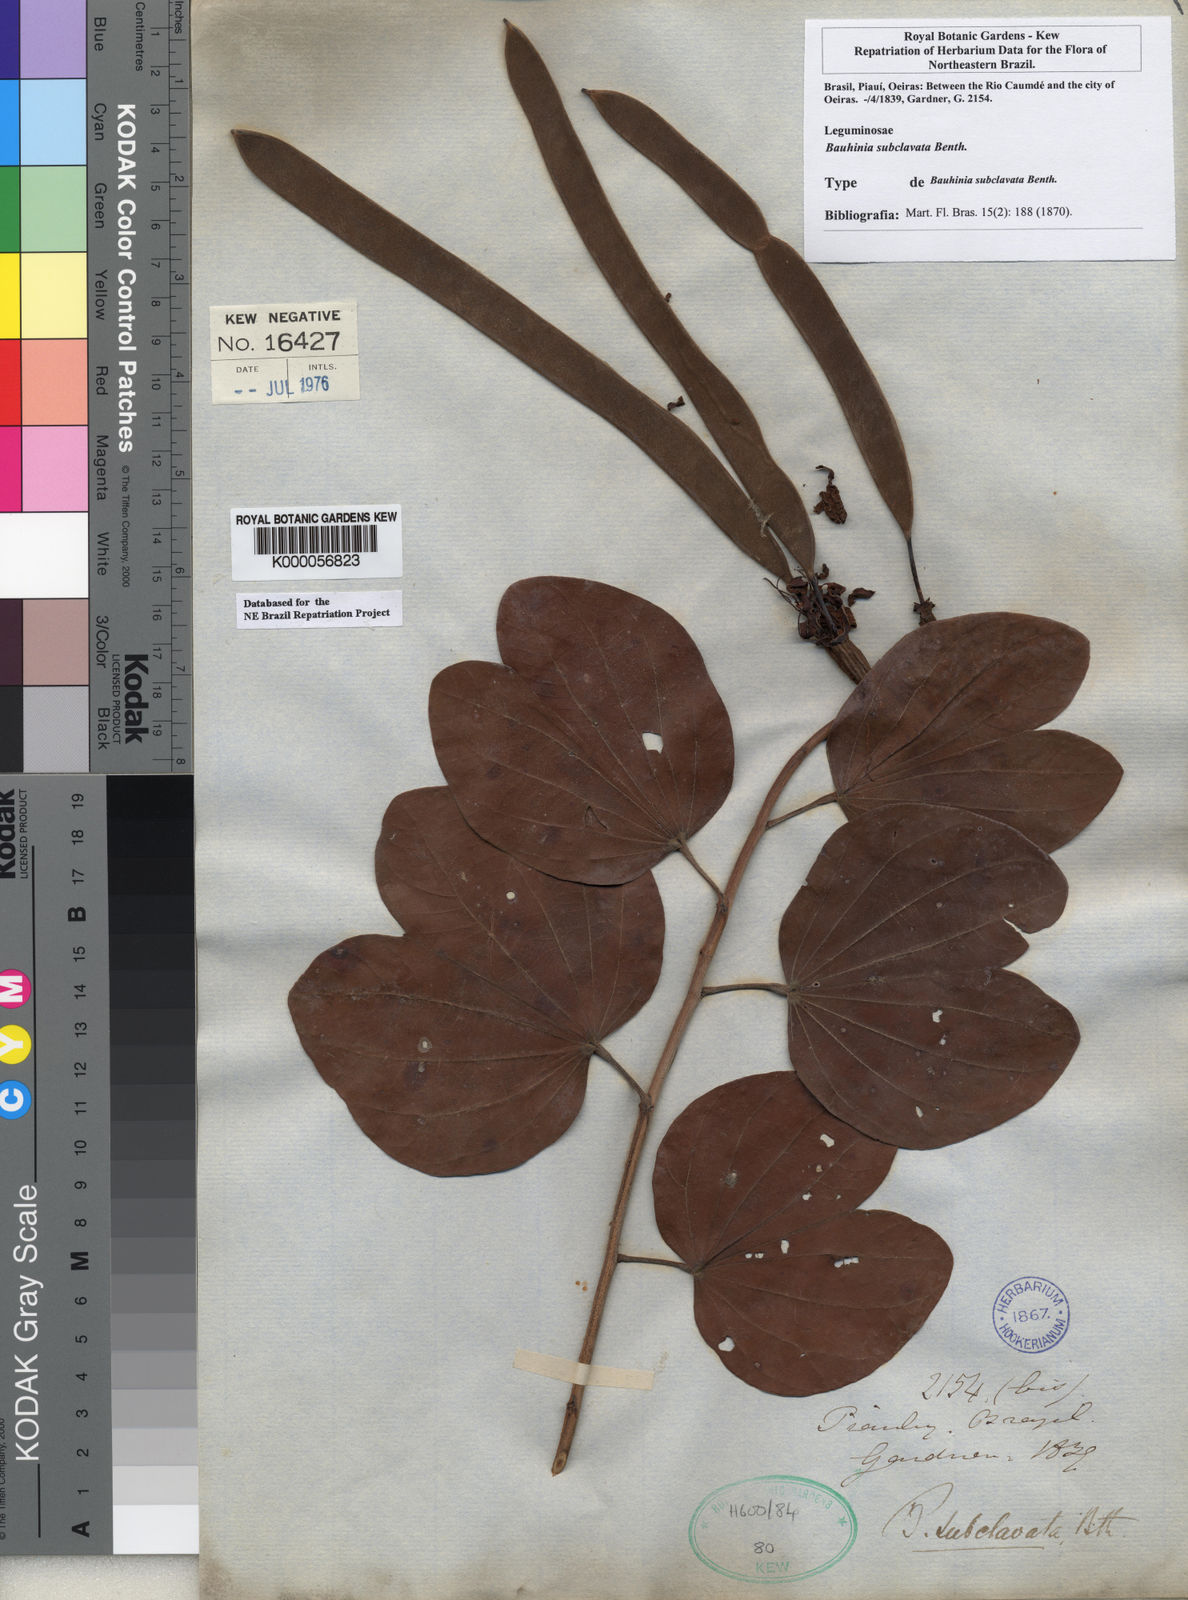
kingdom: Plantae
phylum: Tracheophyta
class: Magnoliopsida
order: Fabales
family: Fabaceae
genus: Bauhinia
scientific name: Bauhinia subclavata
